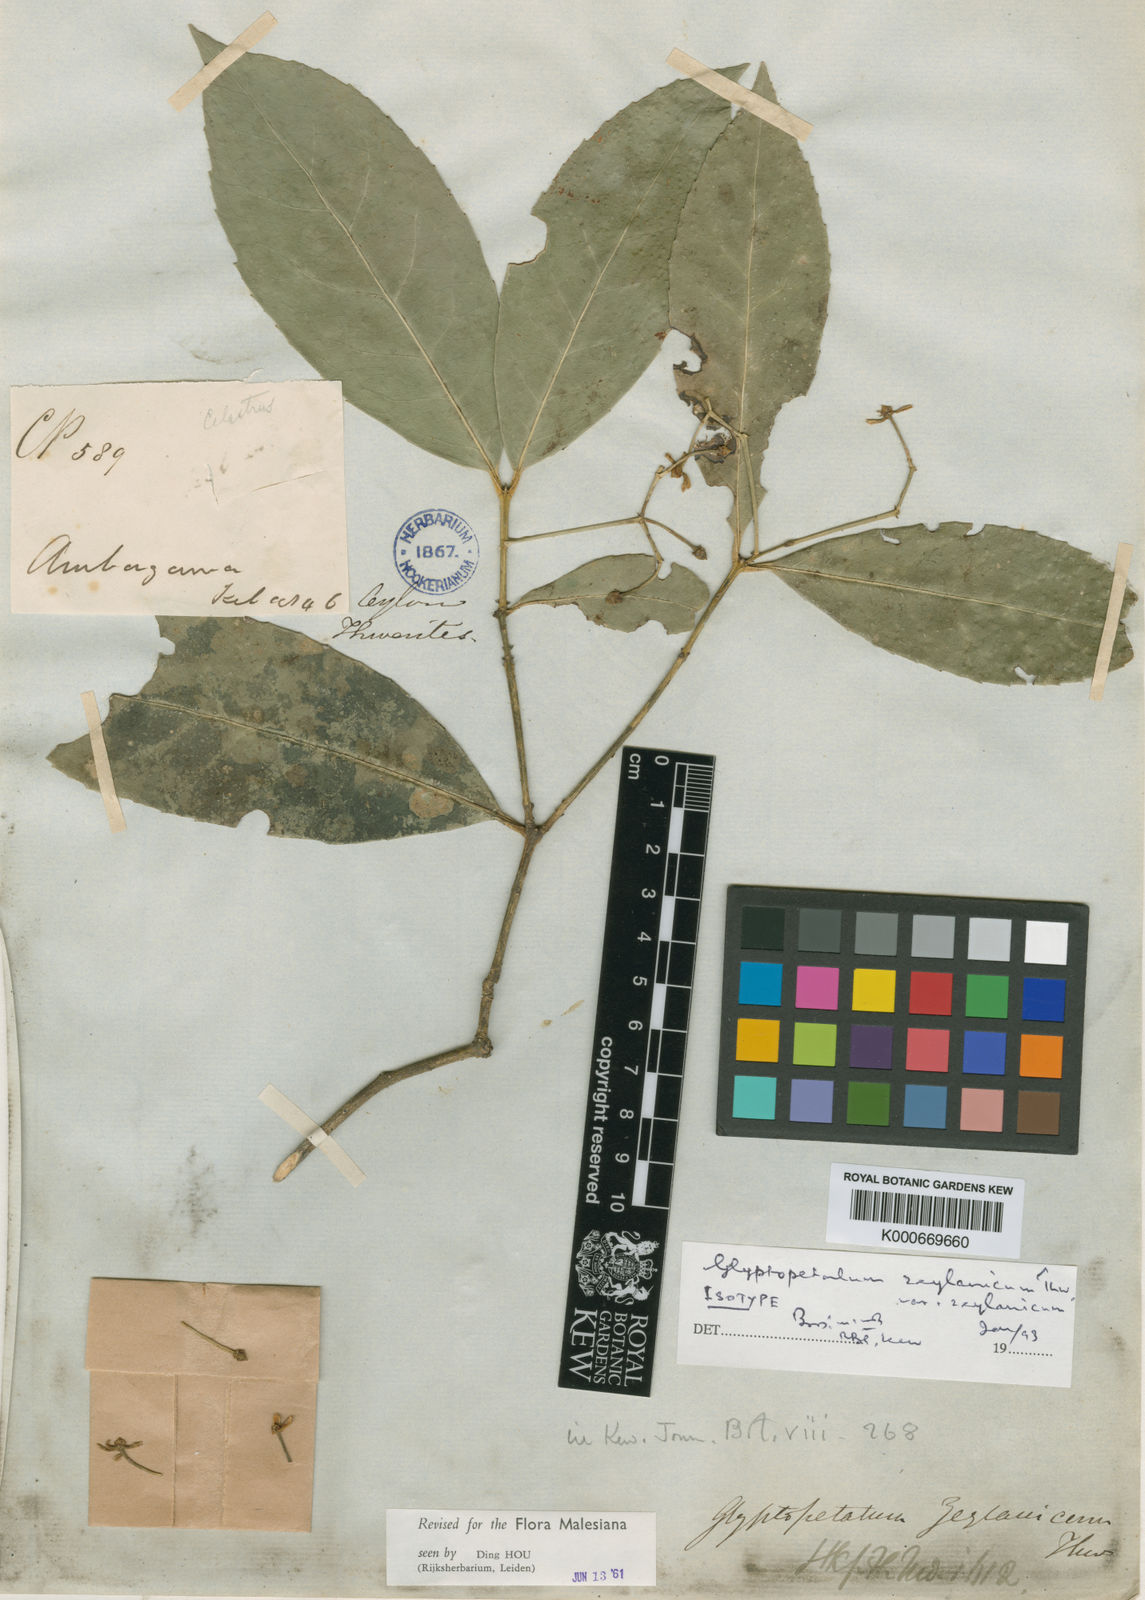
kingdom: Plantae
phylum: Tracheophyta
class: Magnoliopsida
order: Celastrales
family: Celastraceae
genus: Euonymus
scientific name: Euonymus zeylanicus
